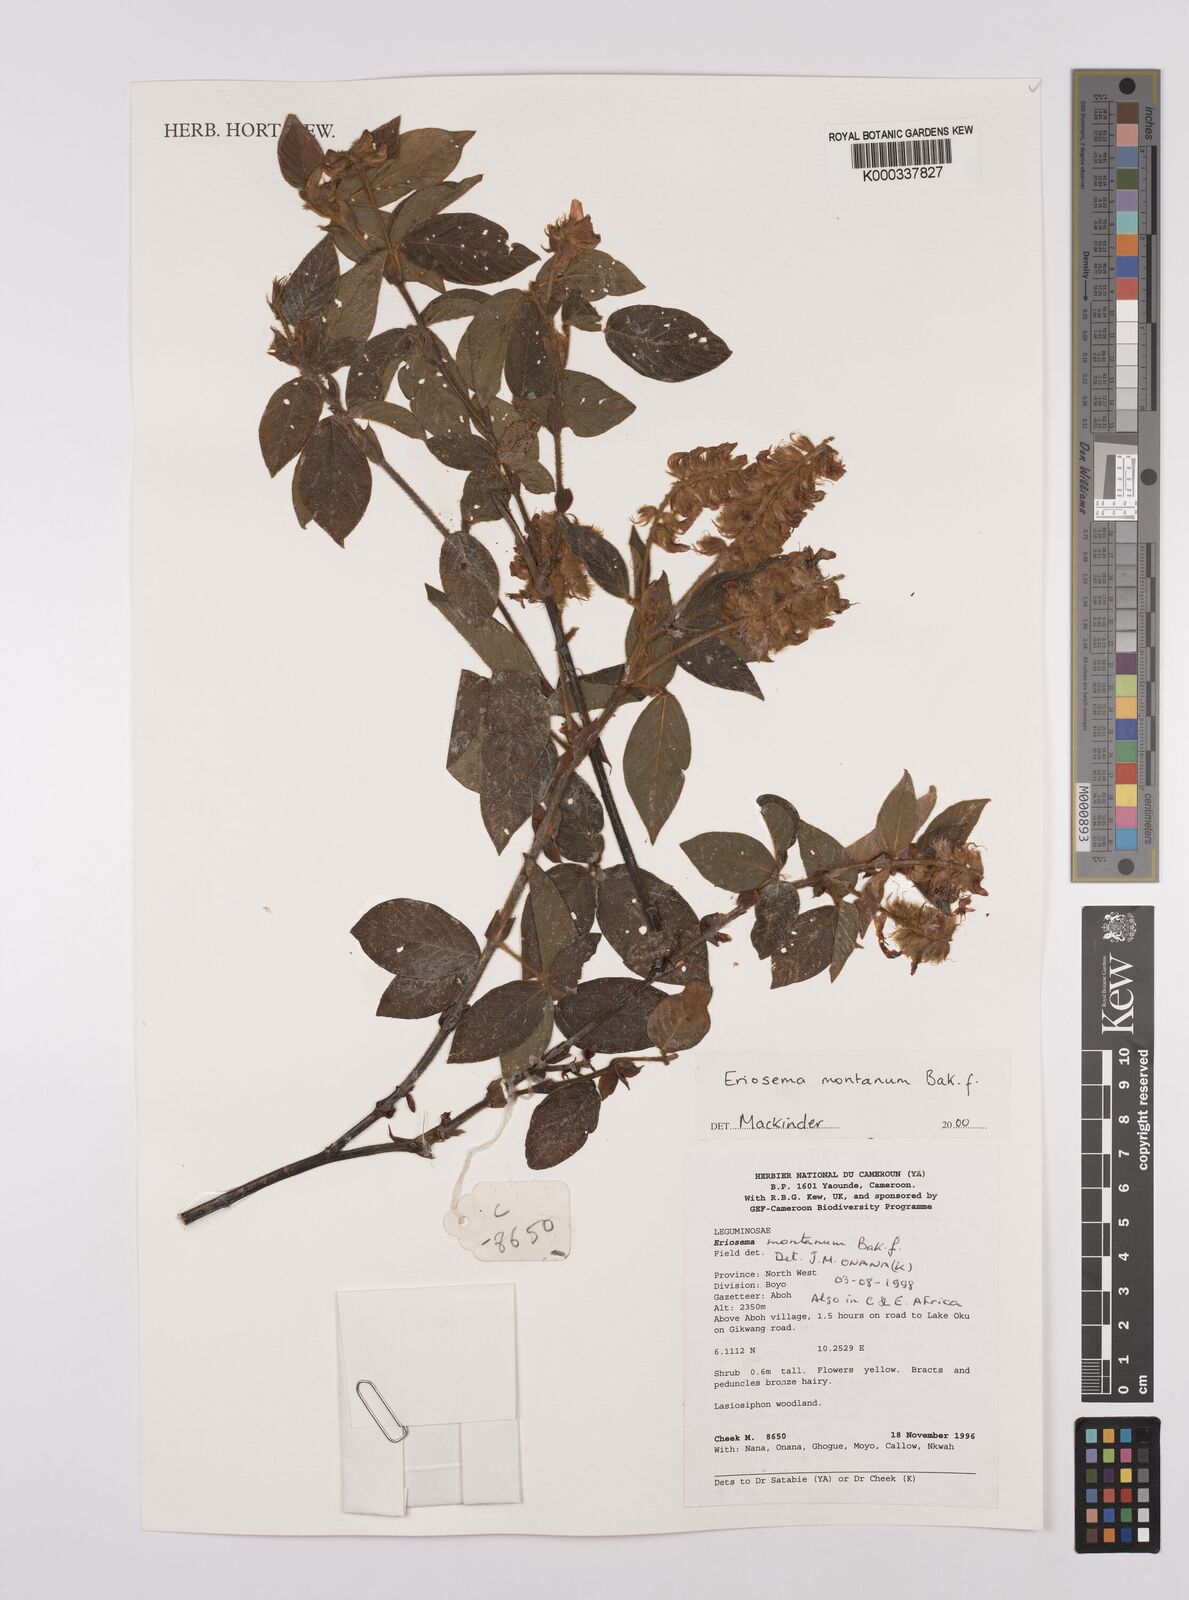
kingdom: Plantae
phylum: Tracheophyta
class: Magnoliopsida
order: Fabales
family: Fabaceae
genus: Eriosema
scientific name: Eriosema montanum
